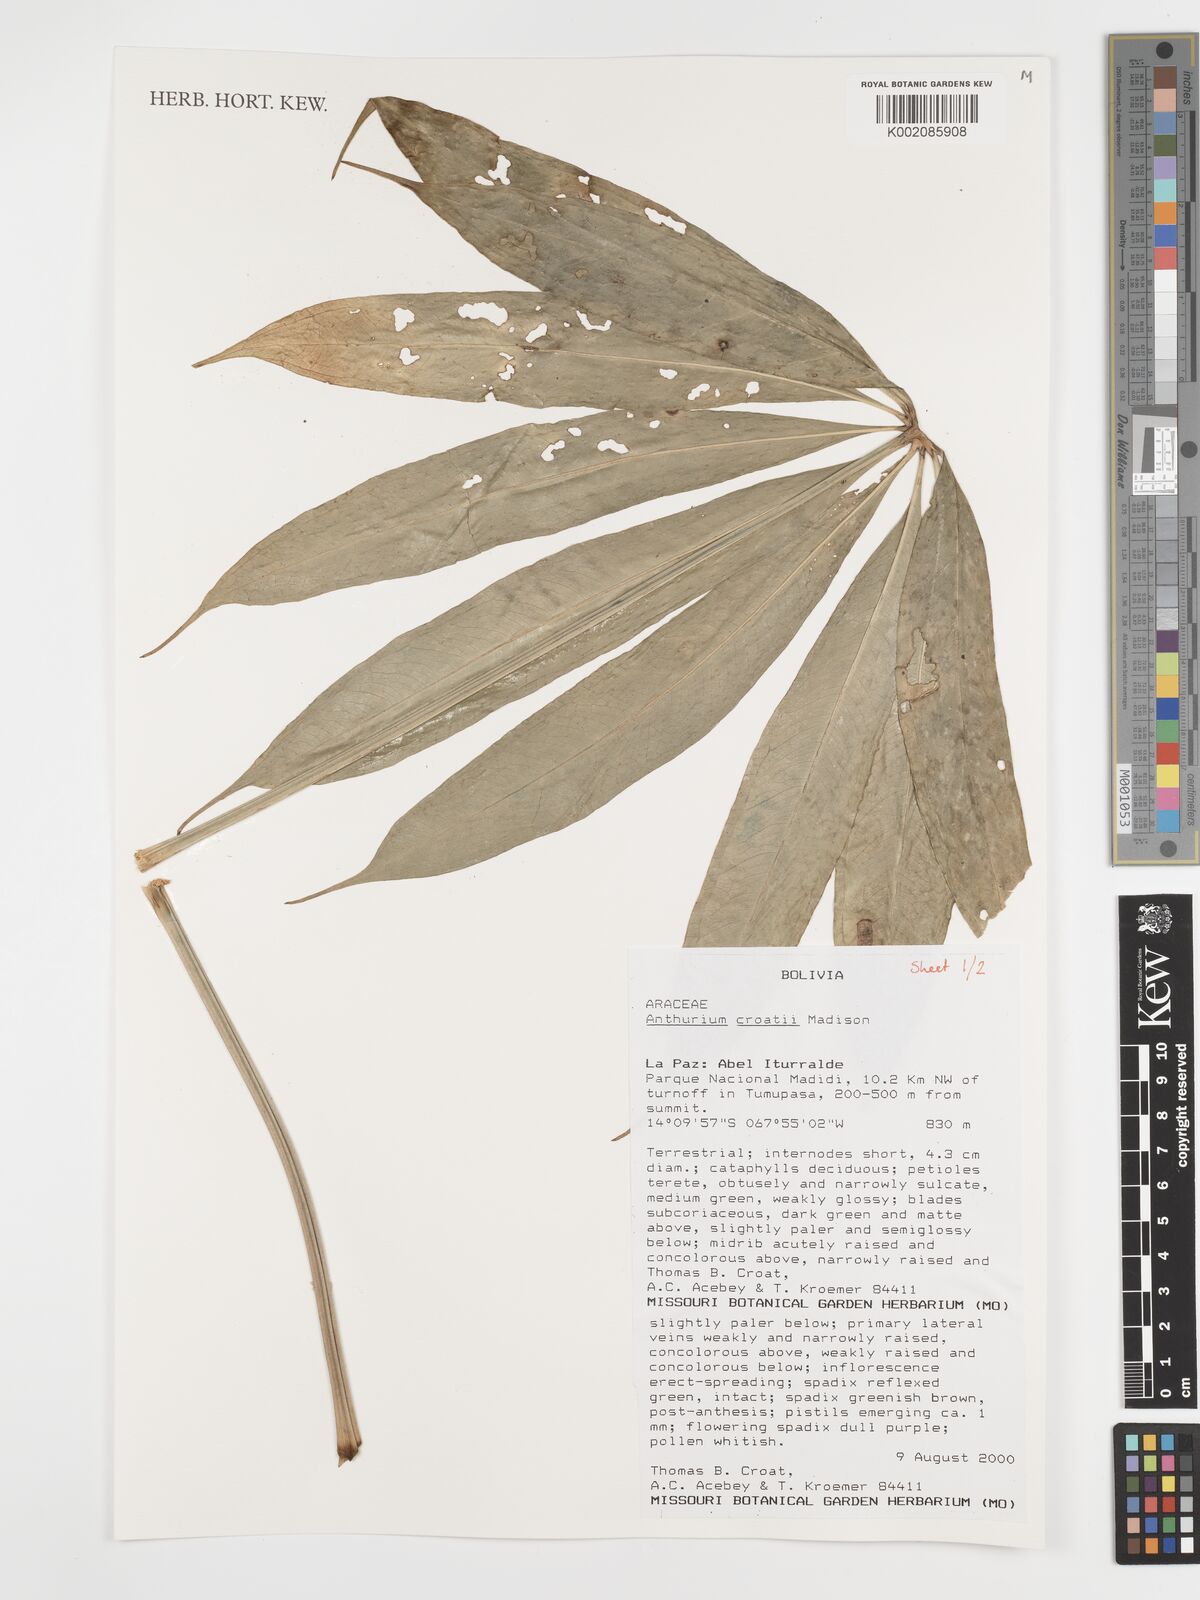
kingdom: Plantae
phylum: Tracheophyta
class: Liliopsida
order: Alismatales
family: Araceae
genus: Anthurium
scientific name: Anthurium croatii
